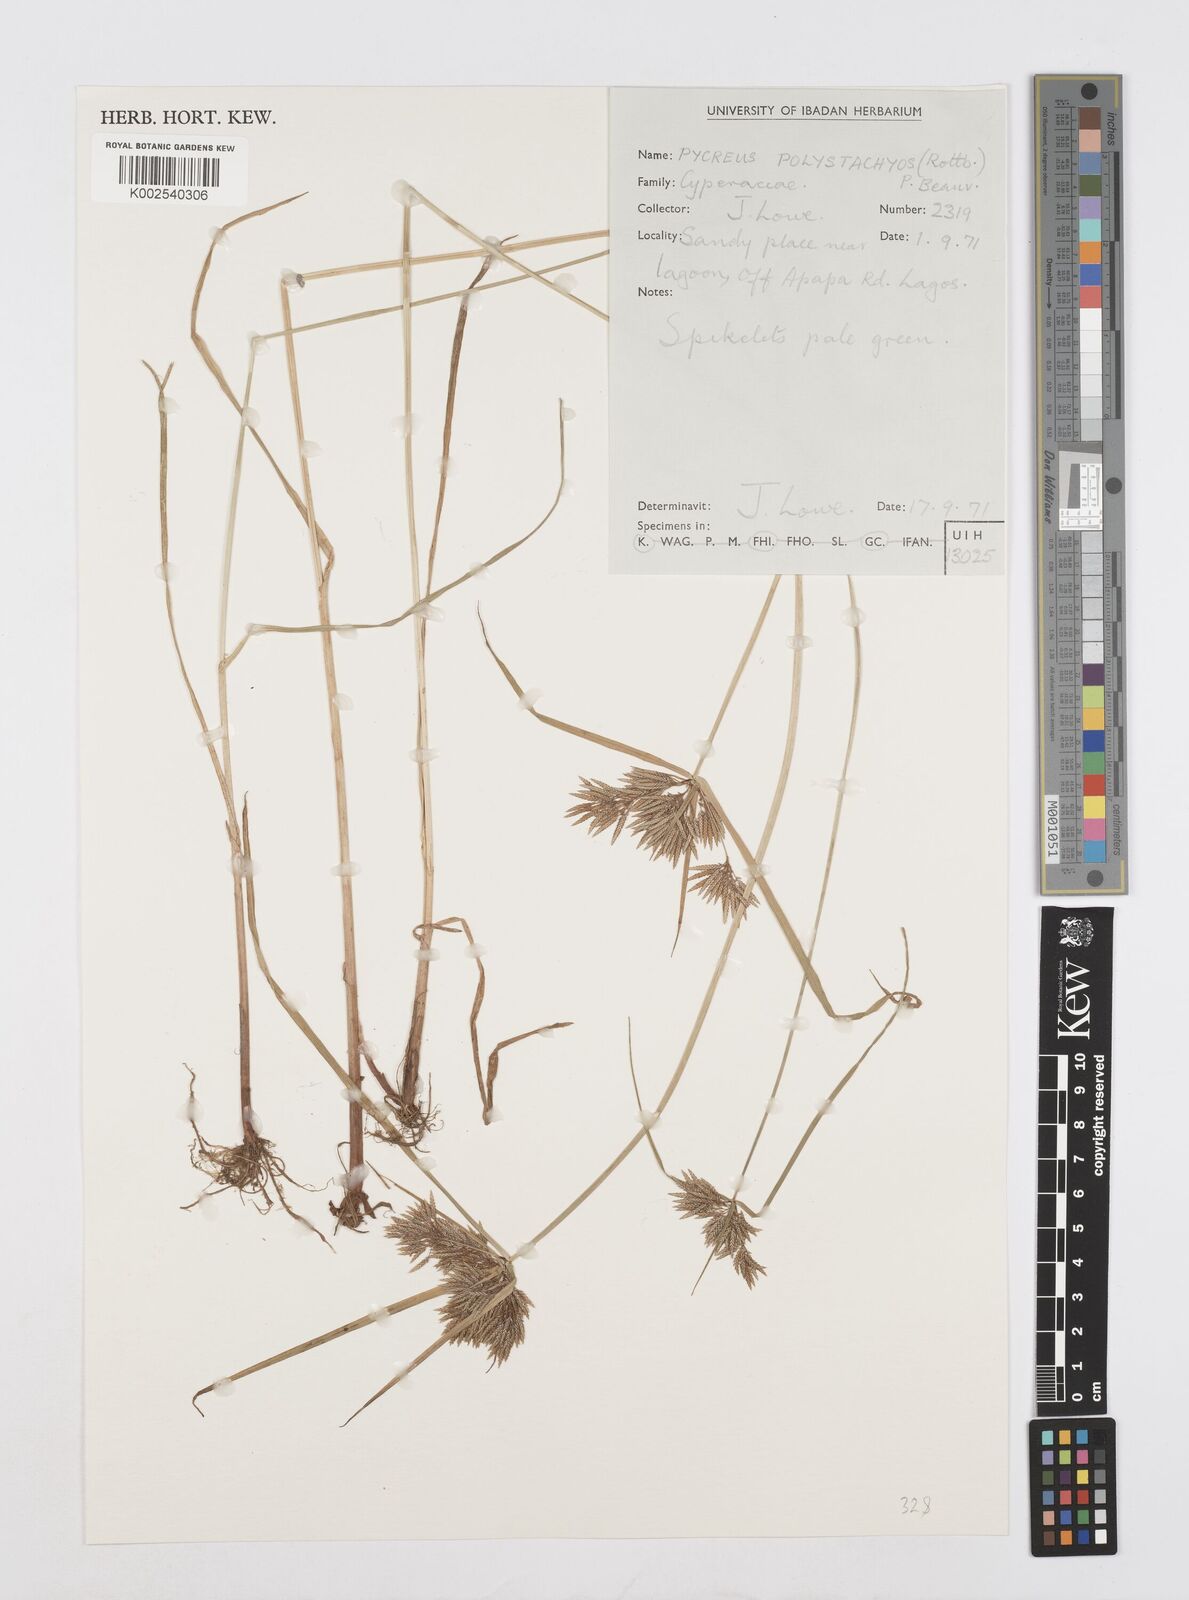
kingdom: Plantae
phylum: Tracheophyta
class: Liliopsida
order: Poales
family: Cyperaceae
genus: Cyperus
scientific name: Cyperus polystachyos
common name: Bunchy flat sedge
